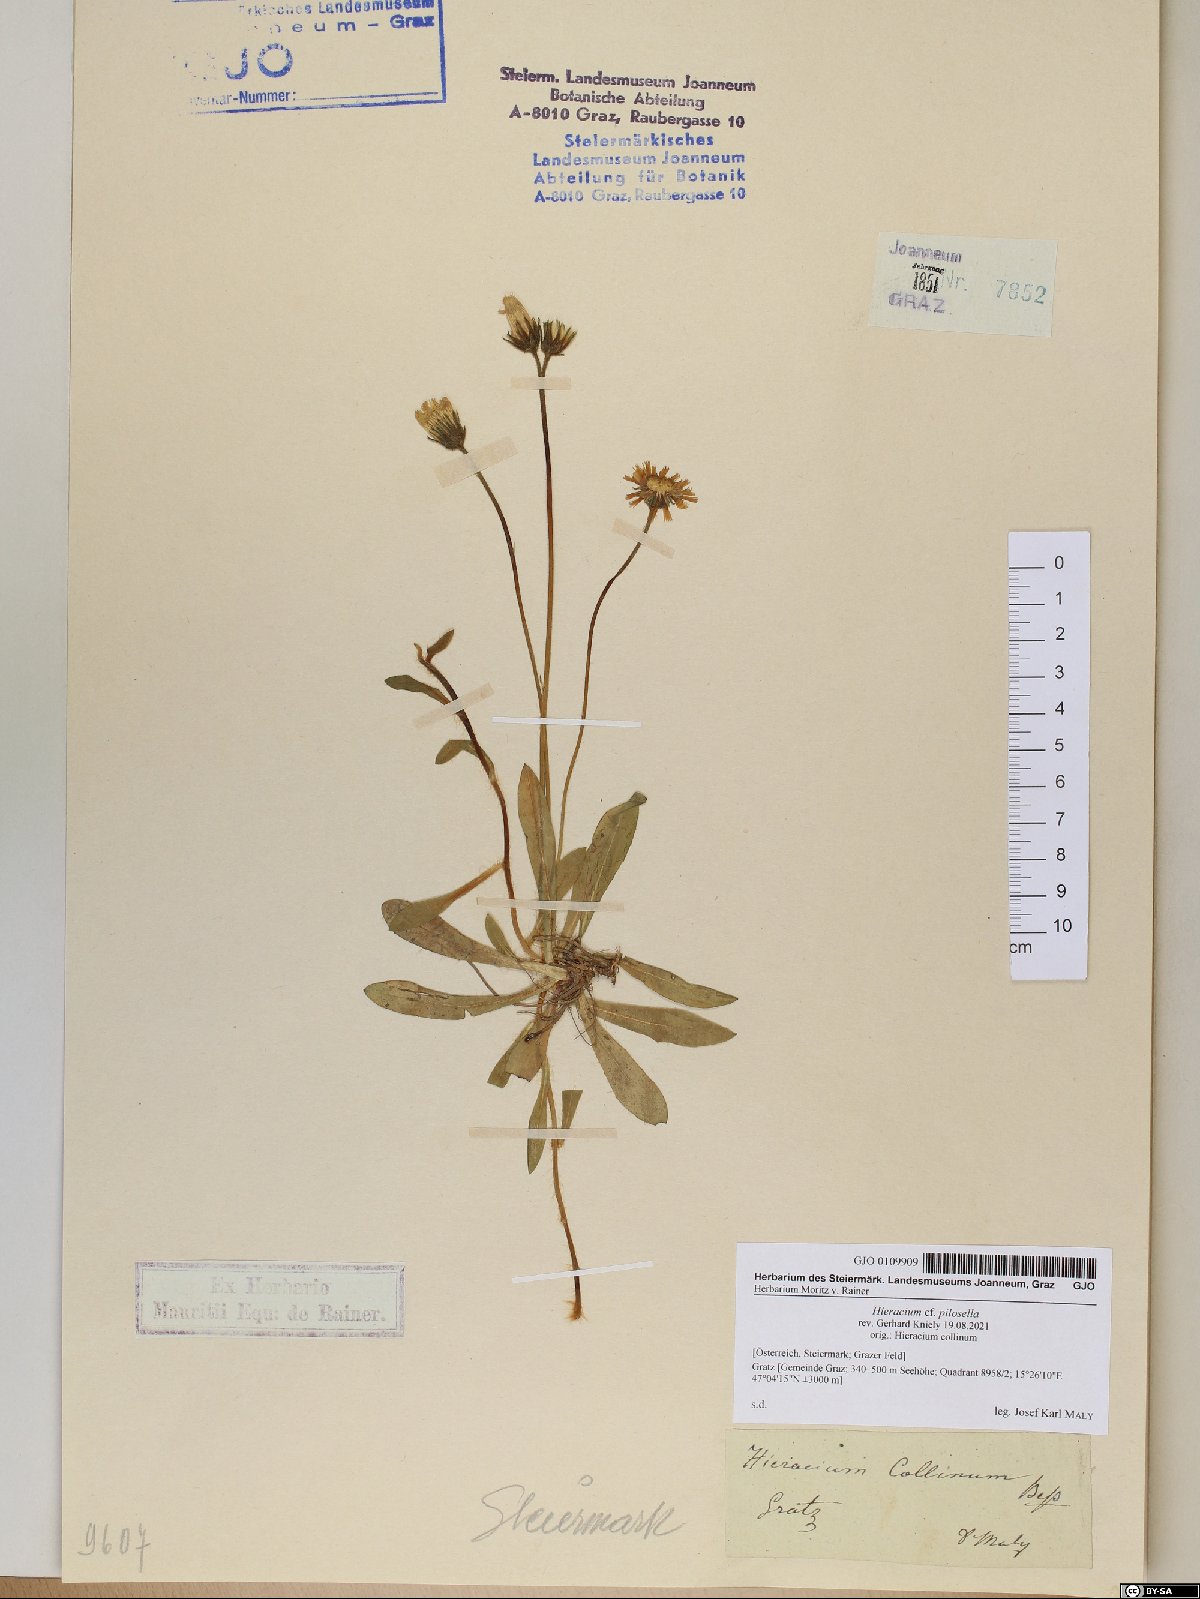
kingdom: Plantae
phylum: Tracheophyta
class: Magnoliopsida
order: Asterales
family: Asteraceae
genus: Pilosella
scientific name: Pilosella officinarum
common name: Mouse-ear hawkweed
